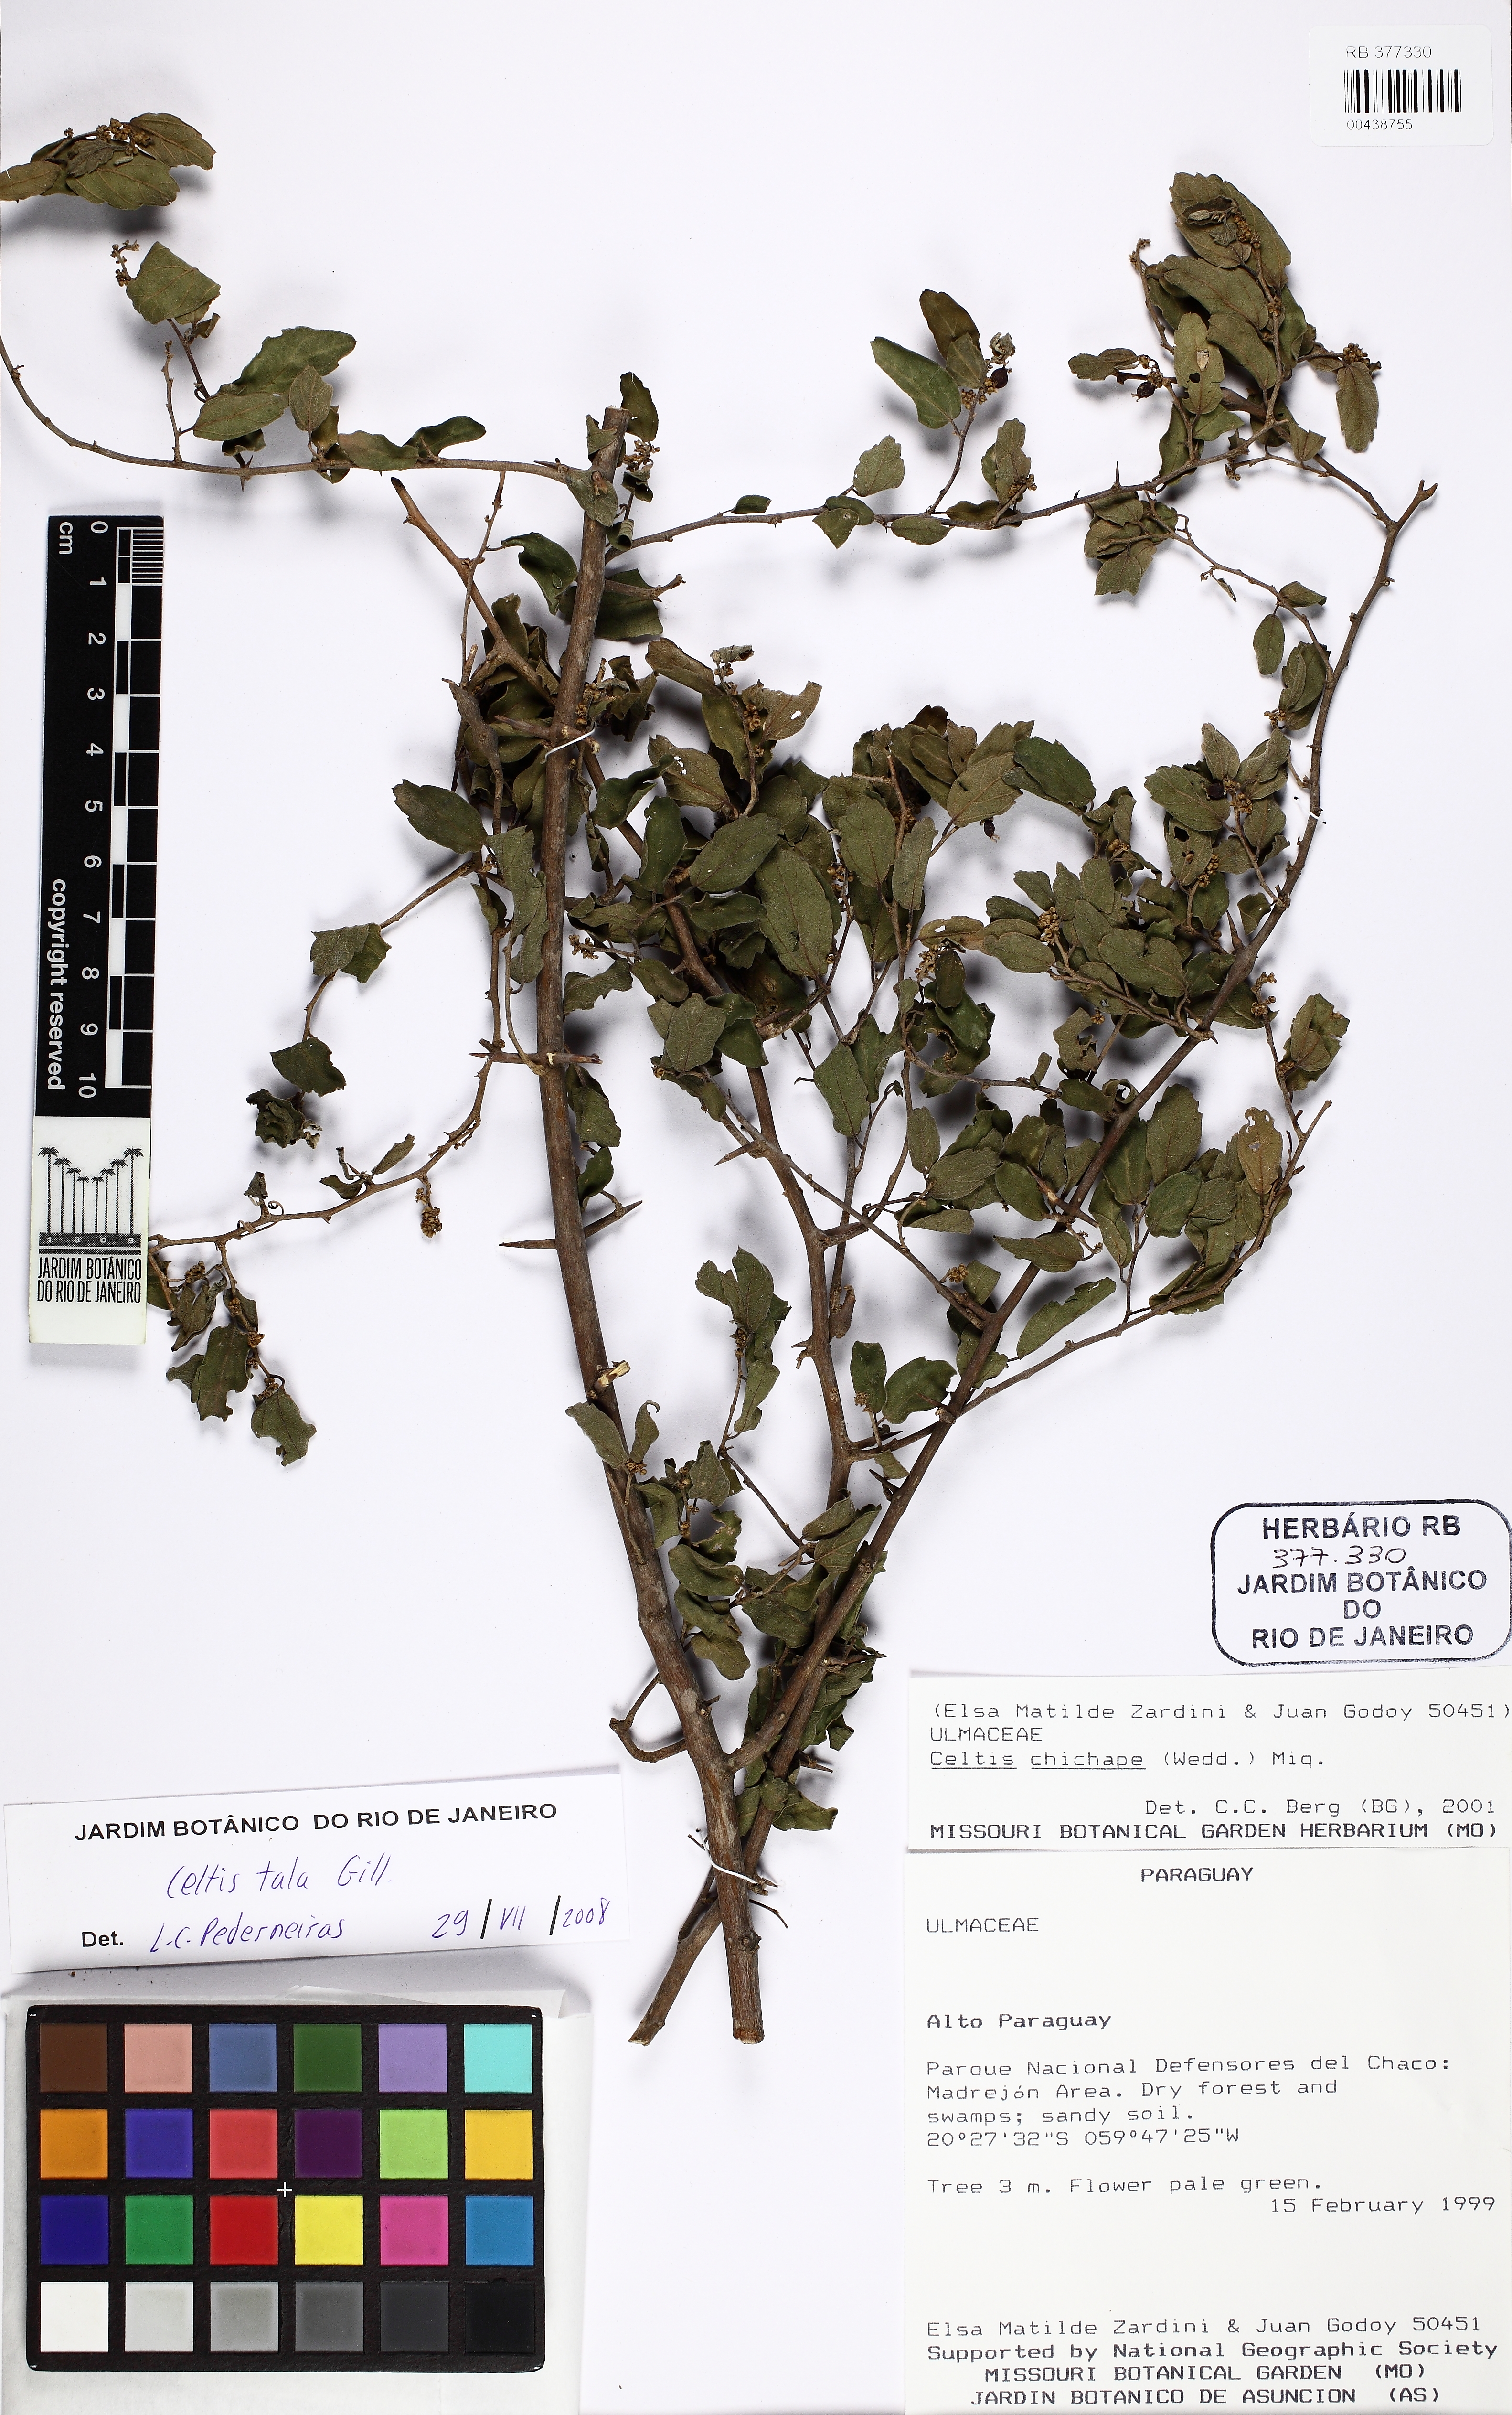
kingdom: Plantae
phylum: Tracheophyta
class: Magnoliopsida
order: Rosales
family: Ulmaceae
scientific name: Ulmaceae
